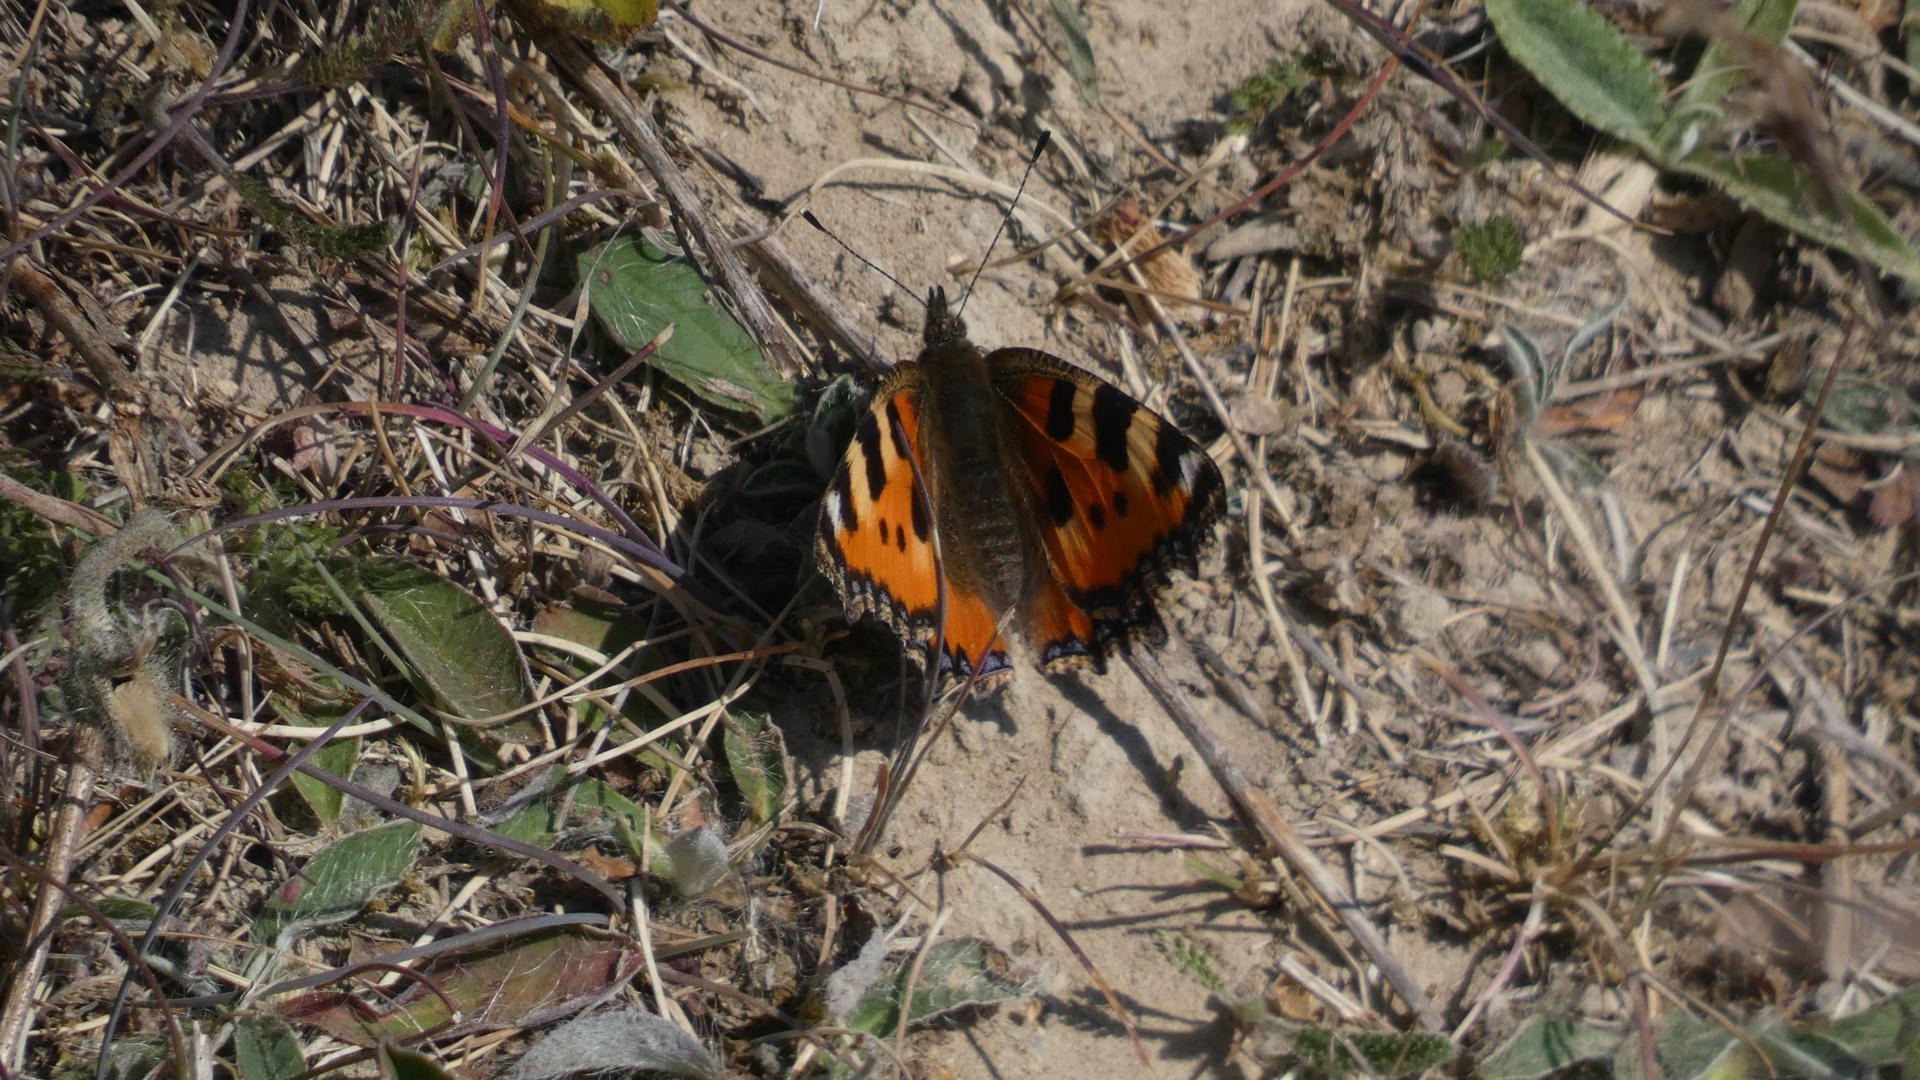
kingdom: Animalia
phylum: Arthropoda
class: Insecta
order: Lepidoptera
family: Nymphalidae
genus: Aglais
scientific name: Aglais urticae
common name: Nældens takvinge
